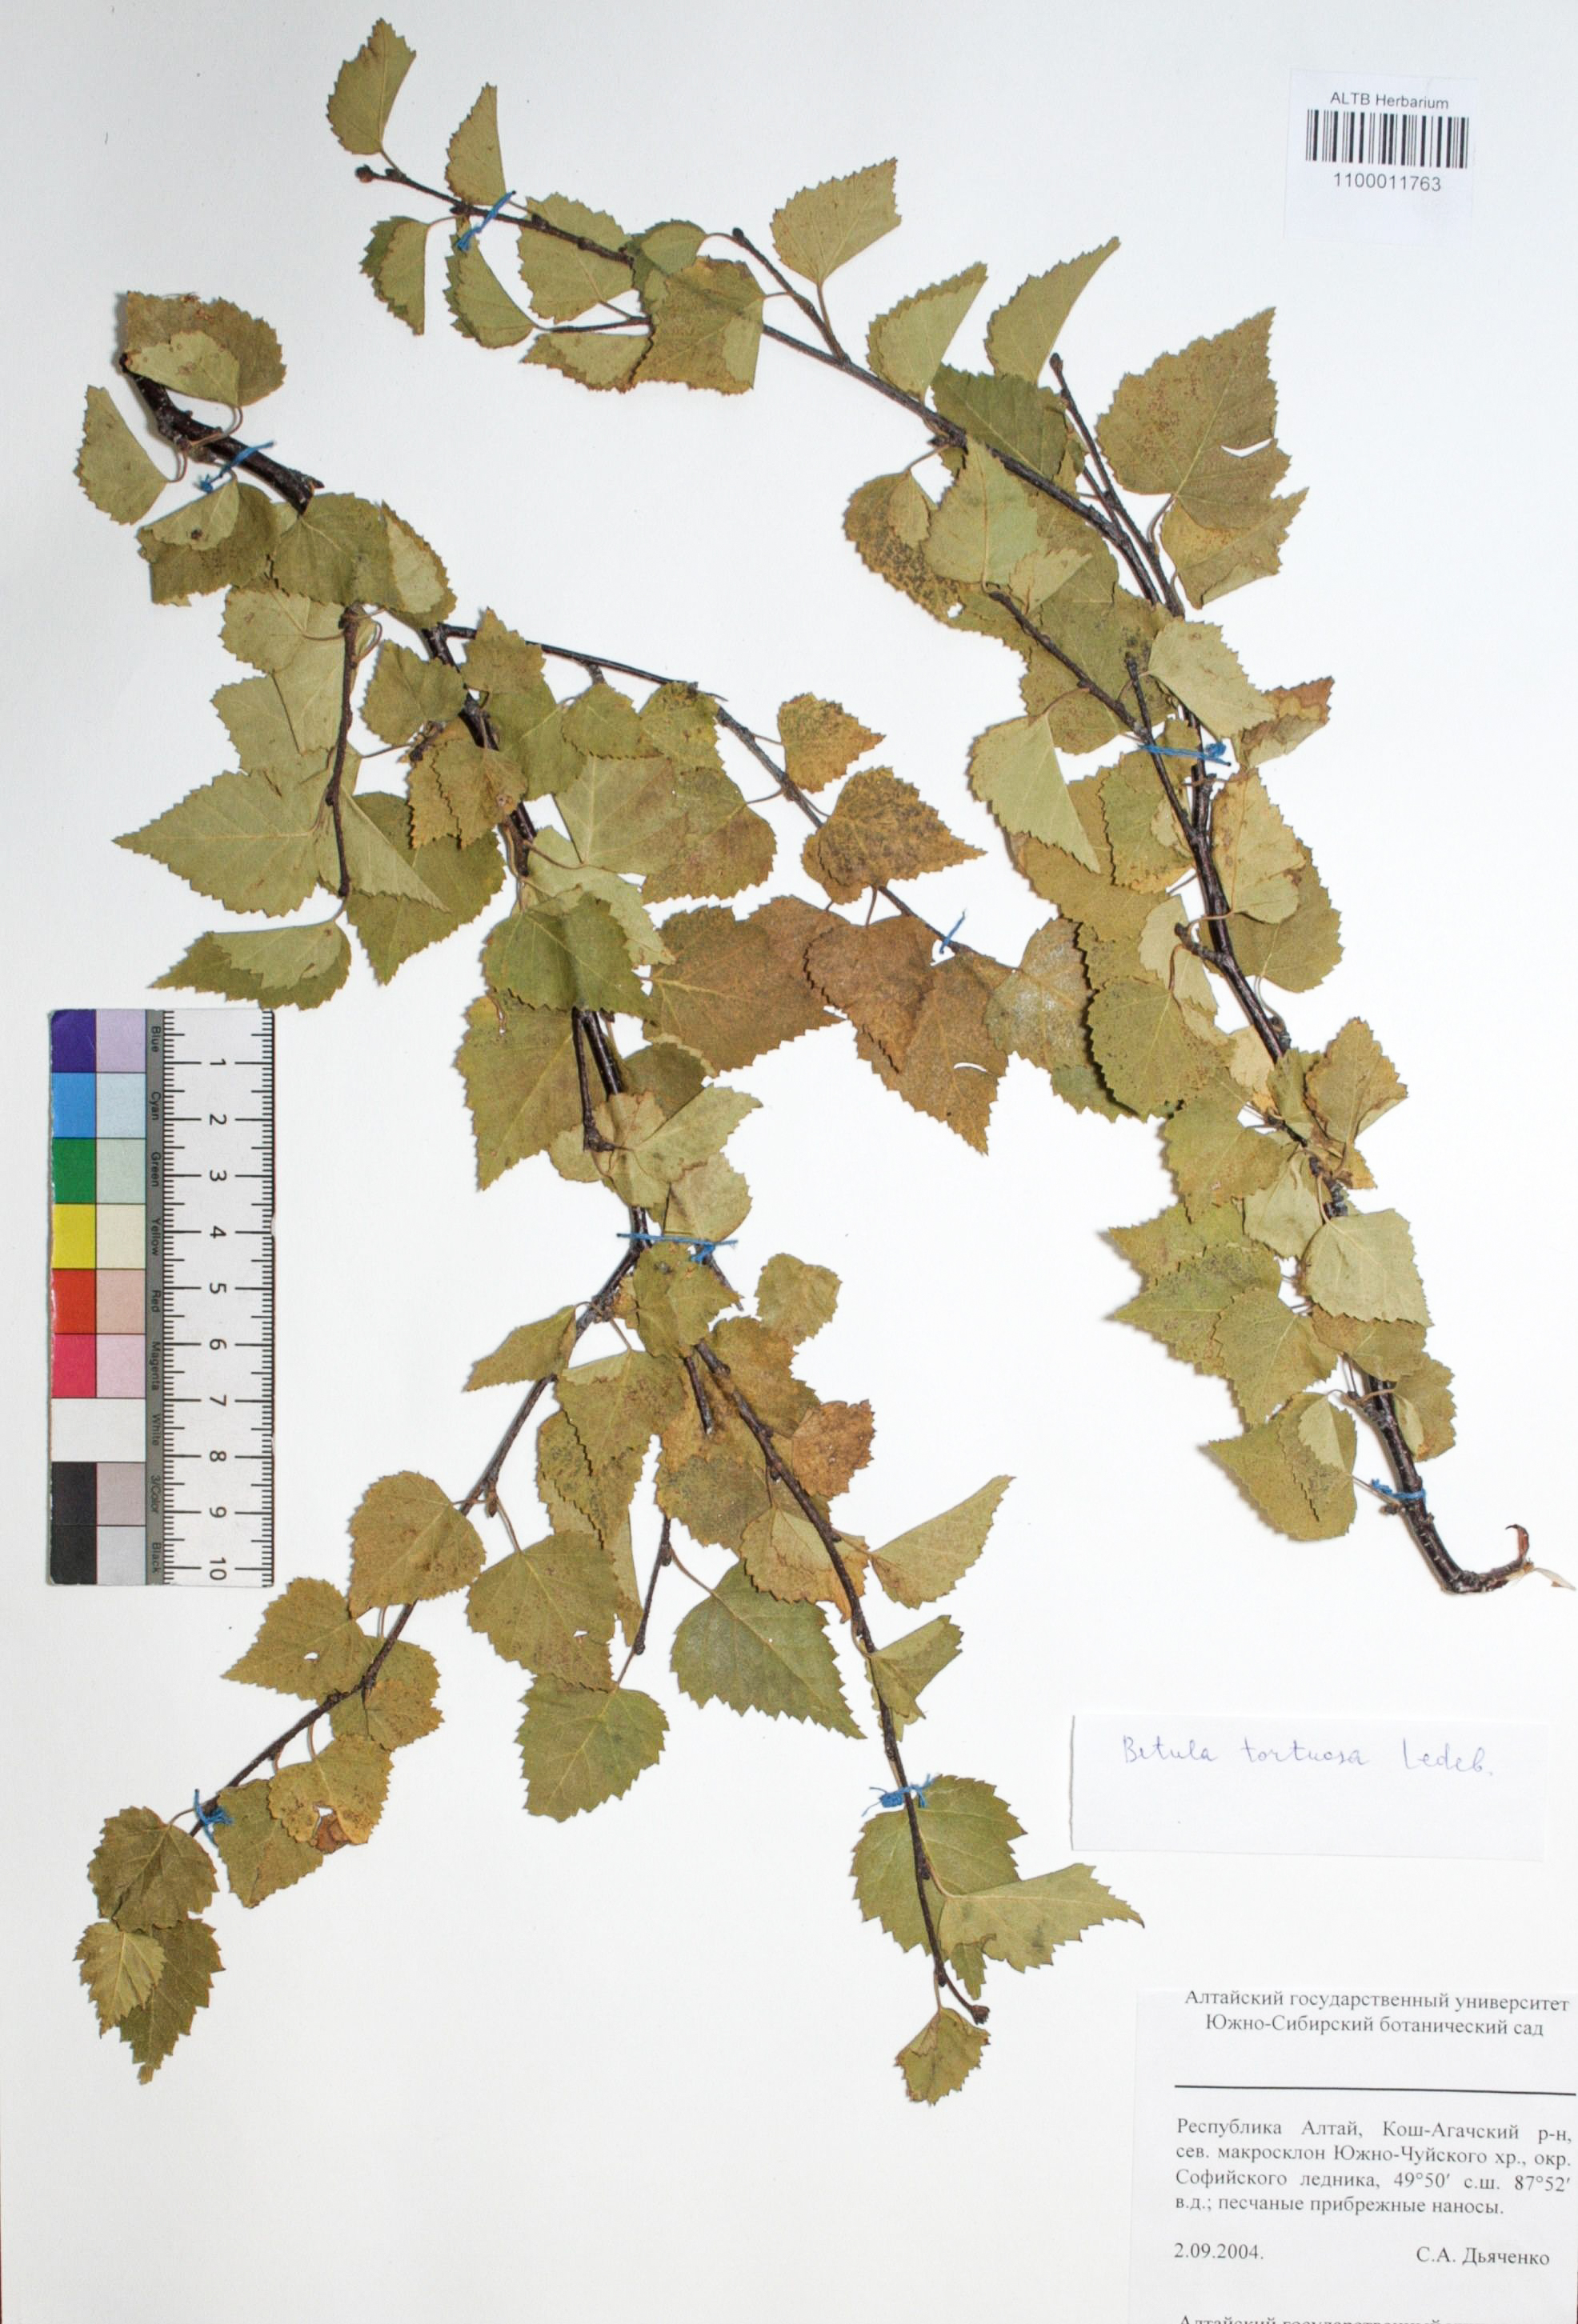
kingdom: Plantae
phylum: Tracheophyta
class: Magnoliopsida
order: Fagales
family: Betulaceae
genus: Betula
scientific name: Betula pubescens
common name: Downy birch
